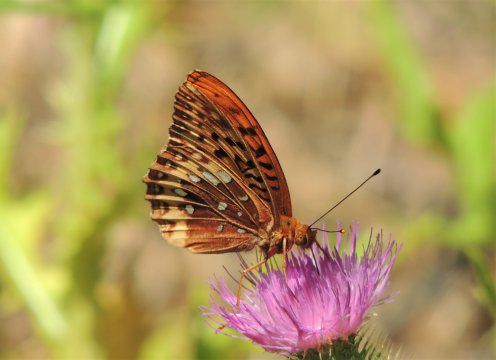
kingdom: Animalia
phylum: Arthropoda
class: Insecta
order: Lepidoptera
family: Nymphalidae
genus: Speyeria
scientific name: Speyeria cybele
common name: Great Spangled Fritillary
